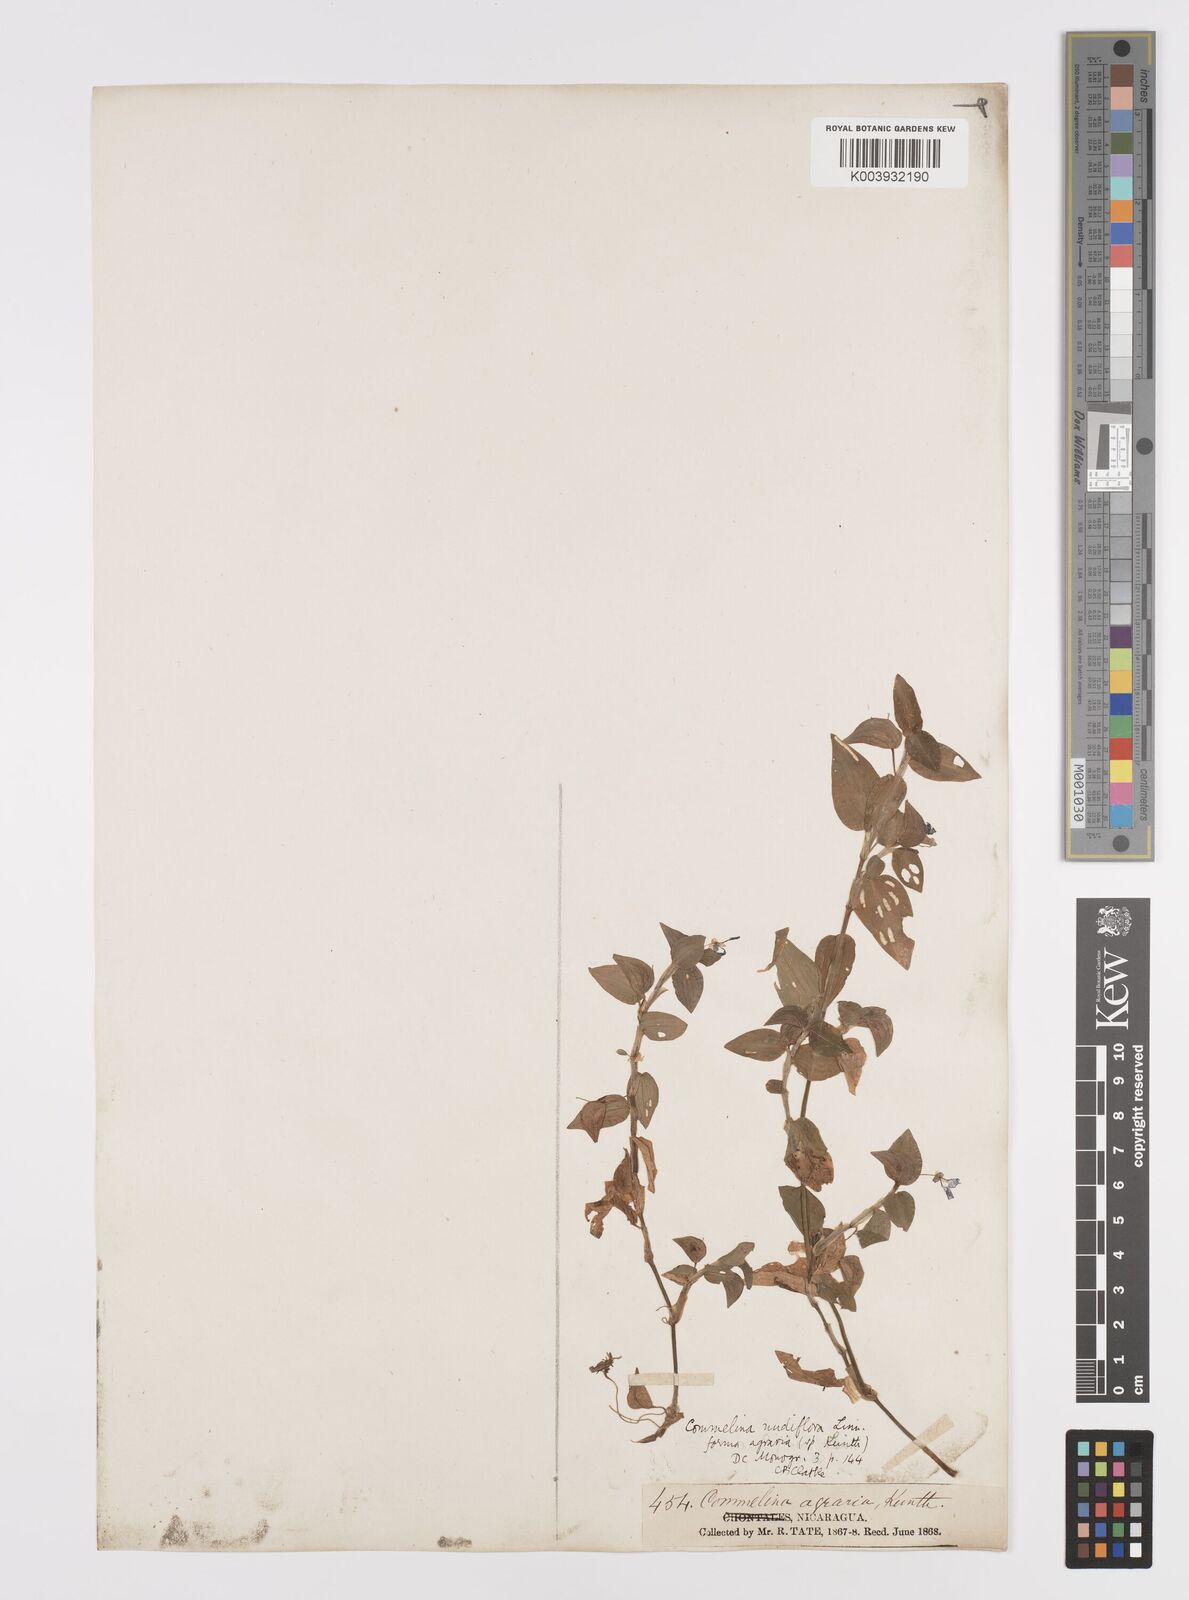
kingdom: Plantae
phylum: Tracheophyta
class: Liliopsida
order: Commelinales
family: Commelinaceae
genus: Commelina
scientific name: Commelina diffusa
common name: Climbing dayflower
